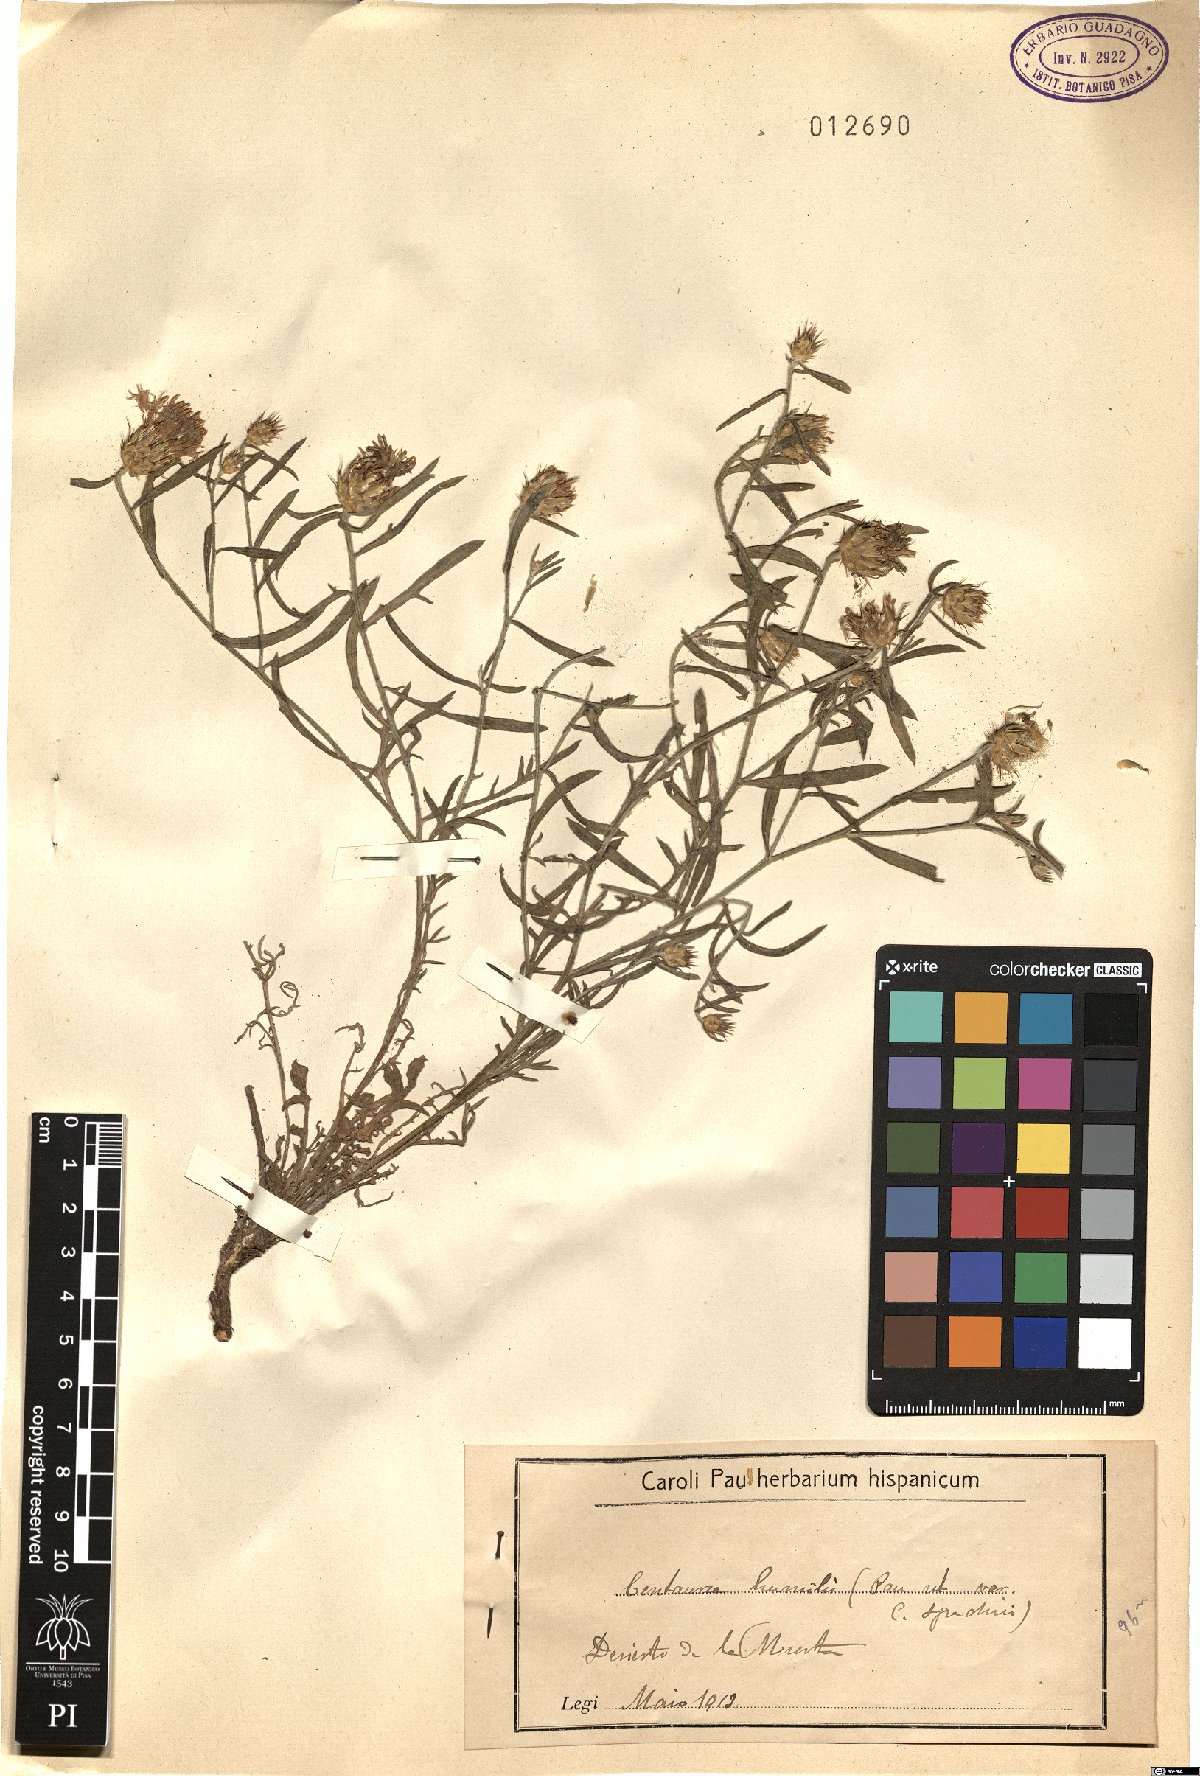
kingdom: Plantae
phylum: Tracheophyta
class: Magnoliopsida
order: Asterales
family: Asteraceae
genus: Centaurea
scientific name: Centaurea pullata
